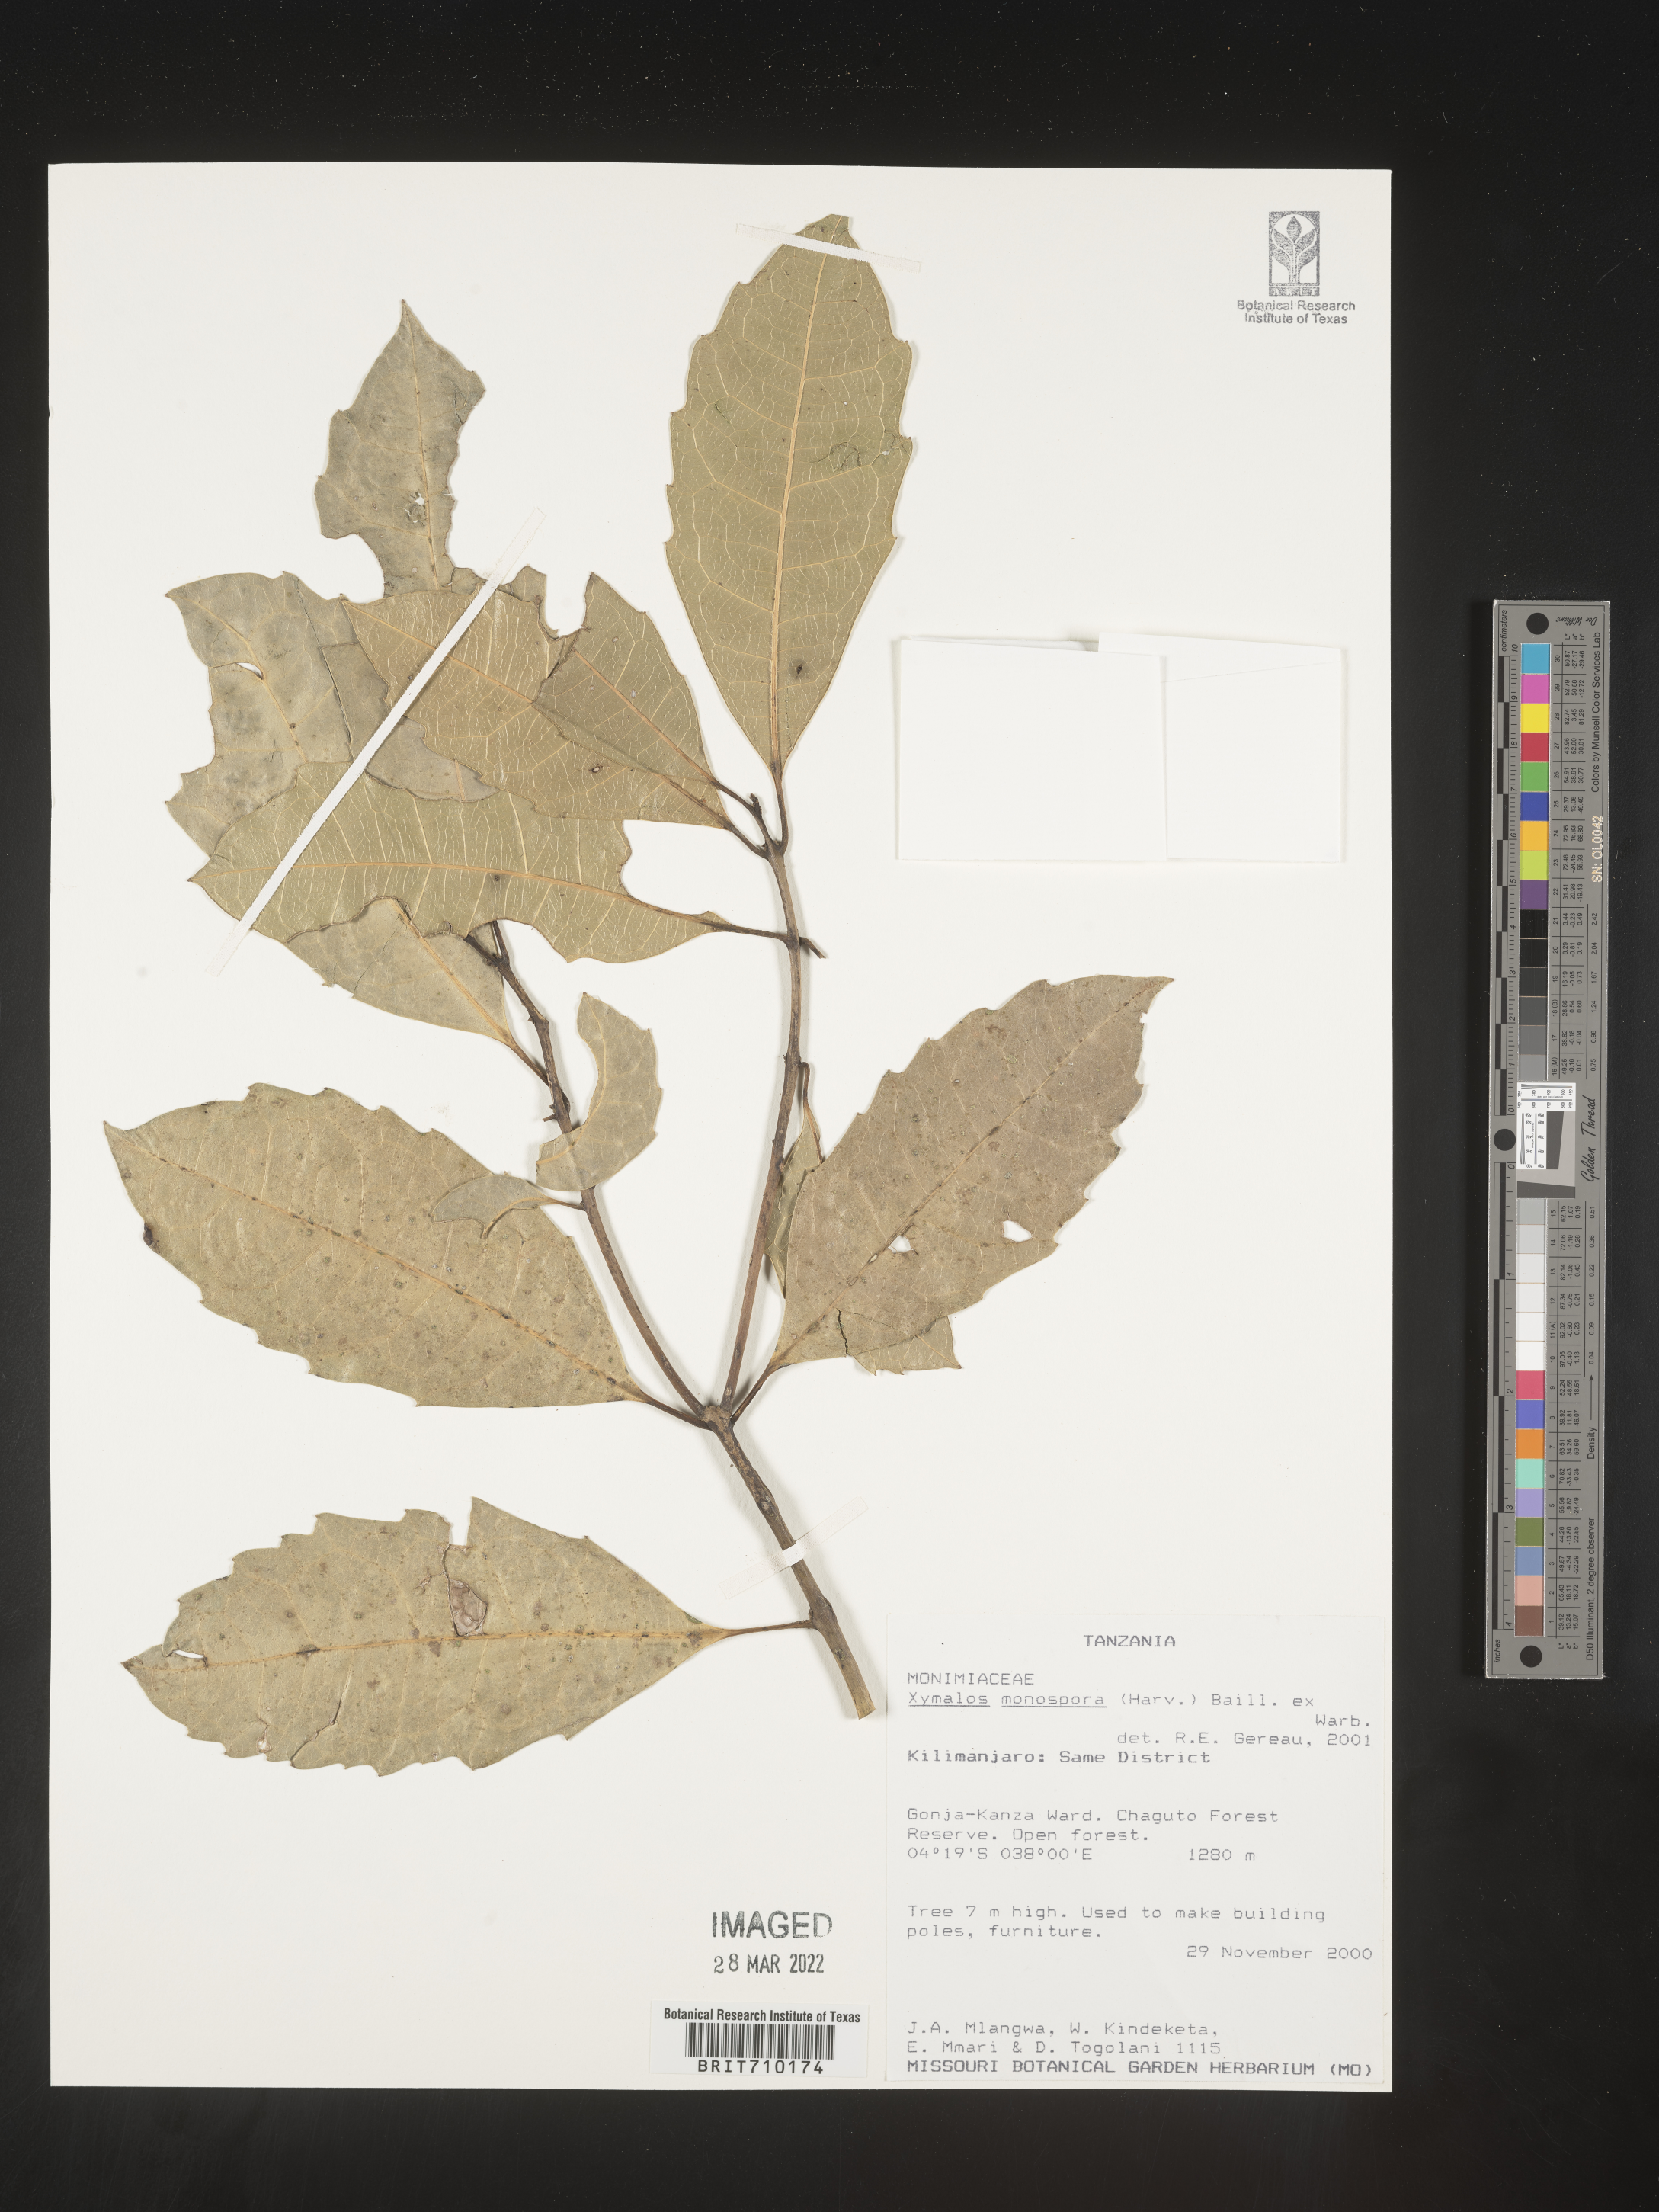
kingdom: Plantae
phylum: Tracheophyta
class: Magnoliopsida
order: Laurales
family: Monimiaceae
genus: Xymalos
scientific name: Xymalos
